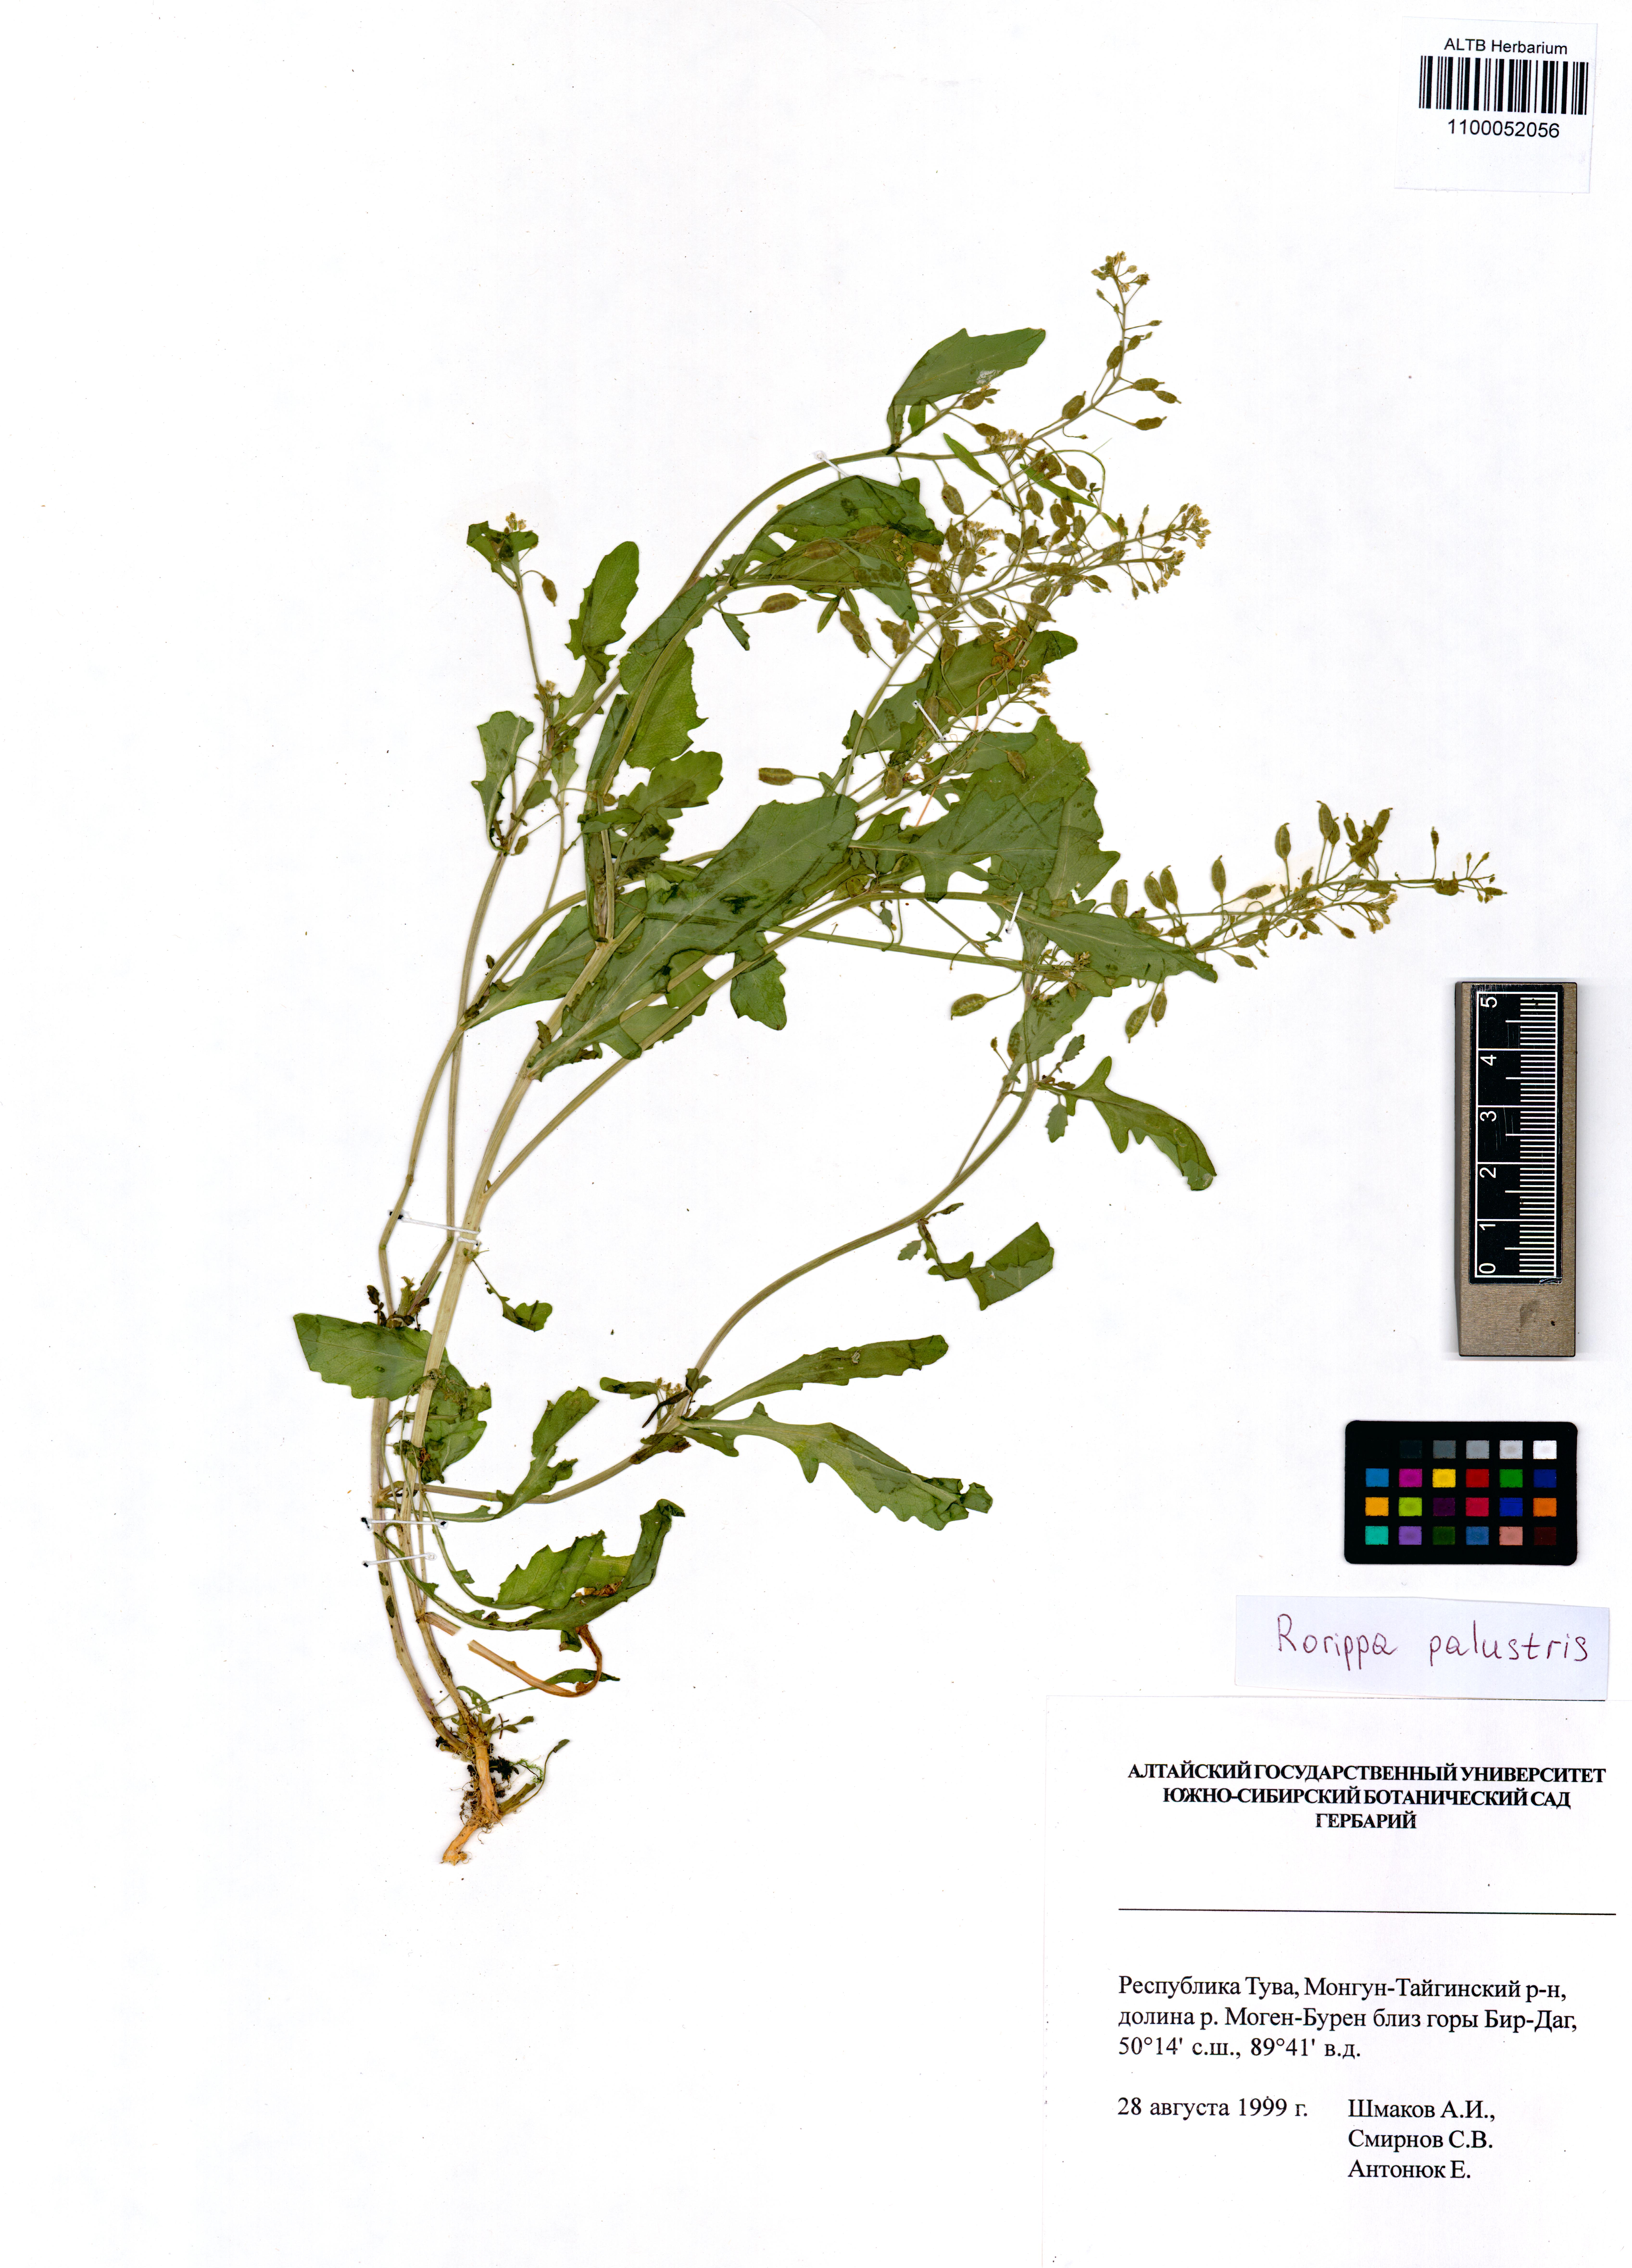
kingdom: Plantae
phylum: Tracheophyta
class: Magnoliopsida
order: Brassicales
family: Brassicaceae
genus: Rorippa
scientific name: Rorippa palustris
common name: Marsh yellow-cress
